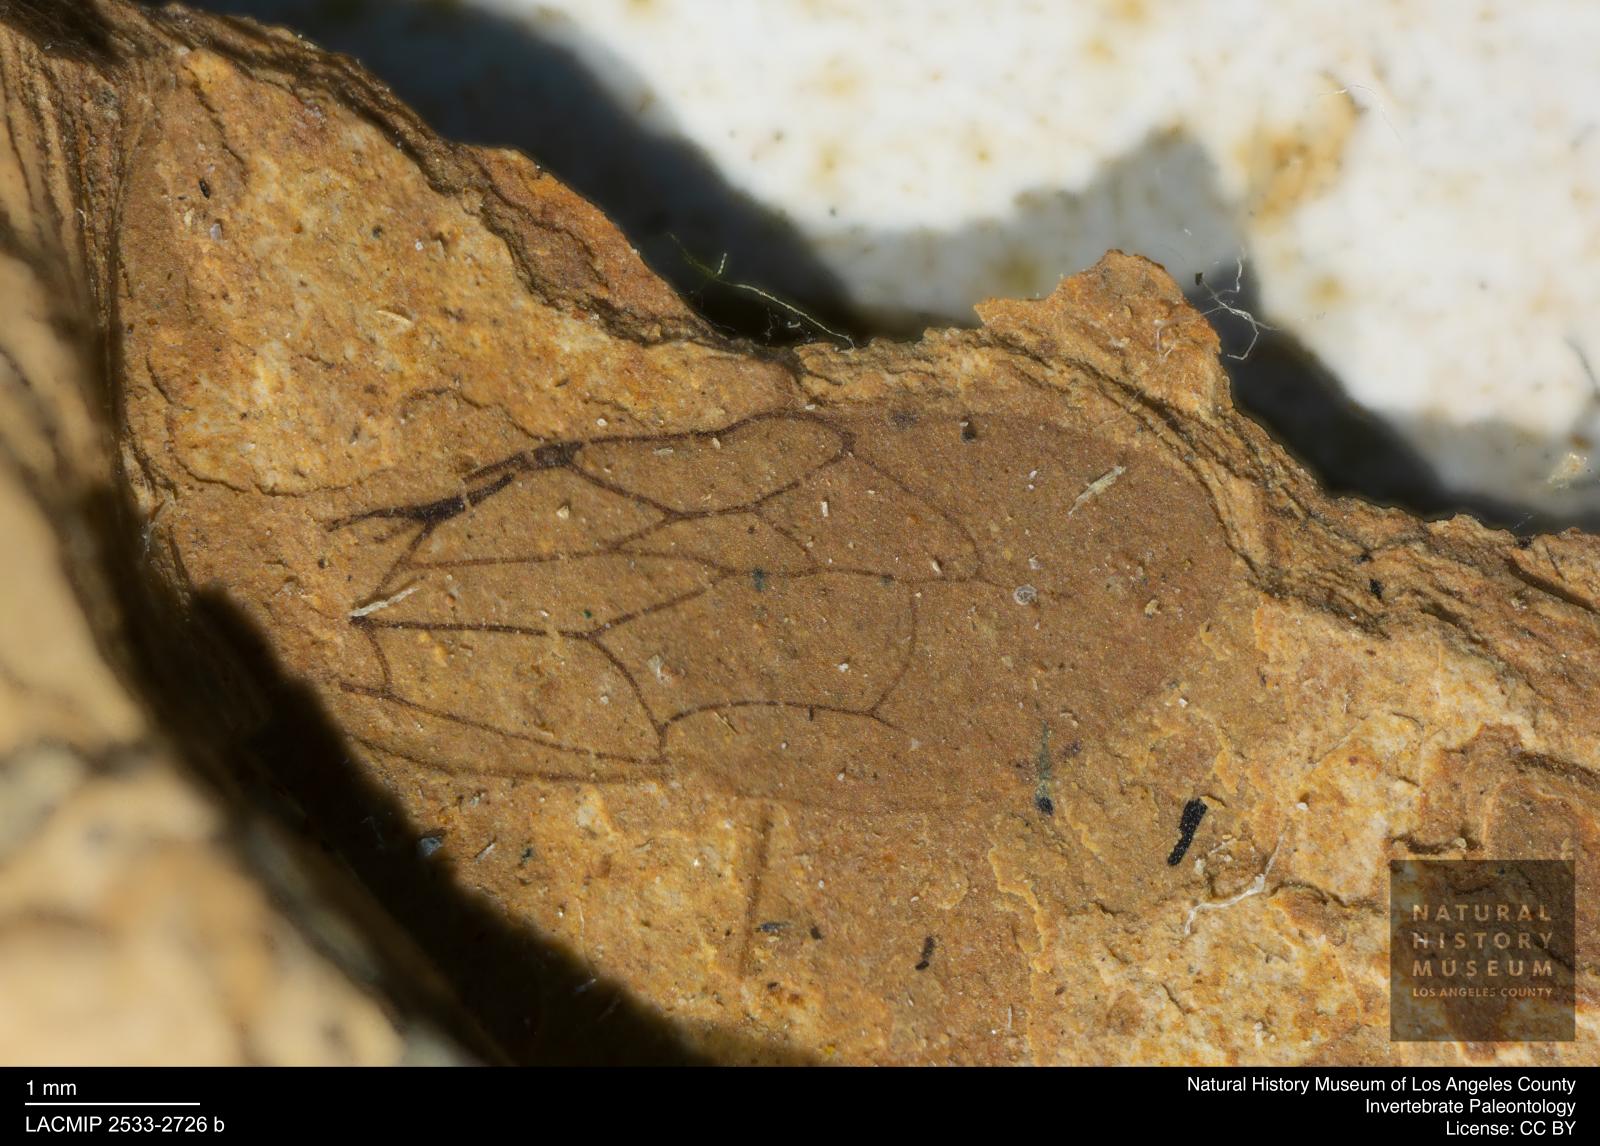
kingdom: Animalia
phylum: Arthropoda
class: Insecta
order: Hymenoptera
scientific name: Hymenoptera
